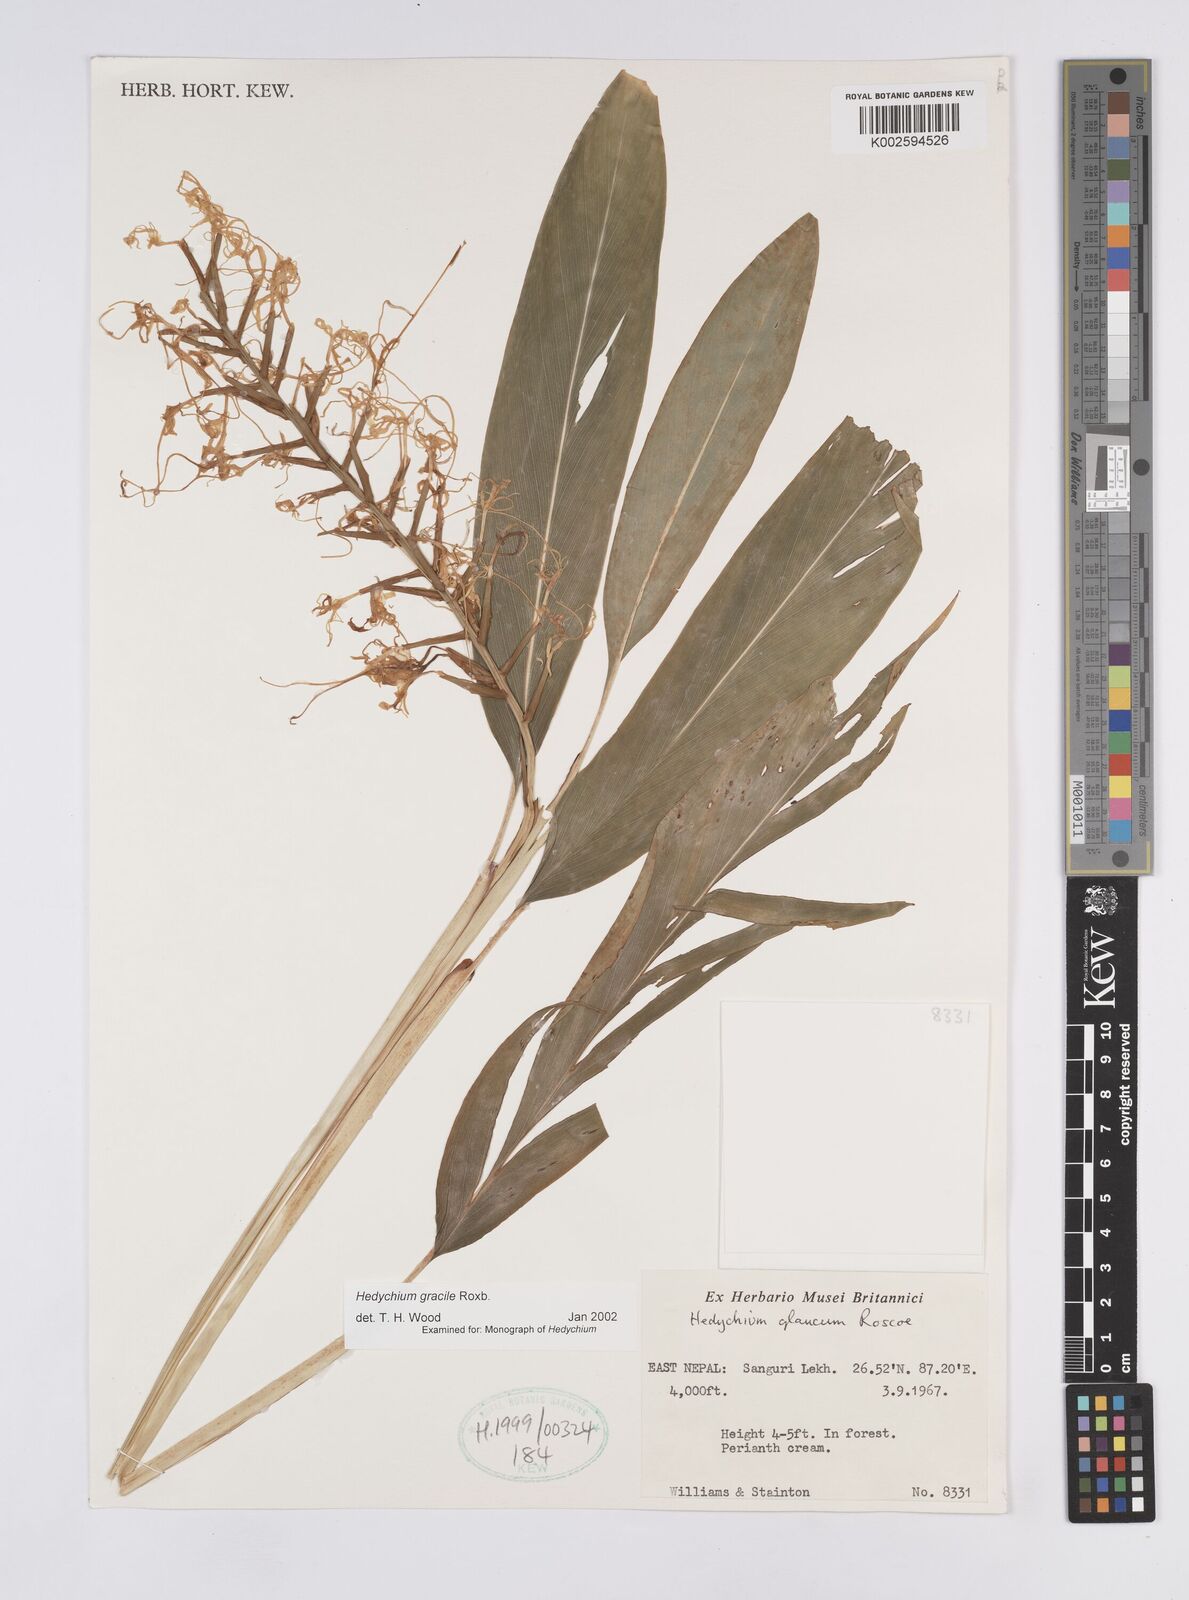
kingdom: Plantae
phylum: Tracheophyta
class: Liliopsida
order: Zingiberales
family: Zingiberaceae
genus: Hedychium
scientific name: Hedychium gracile
